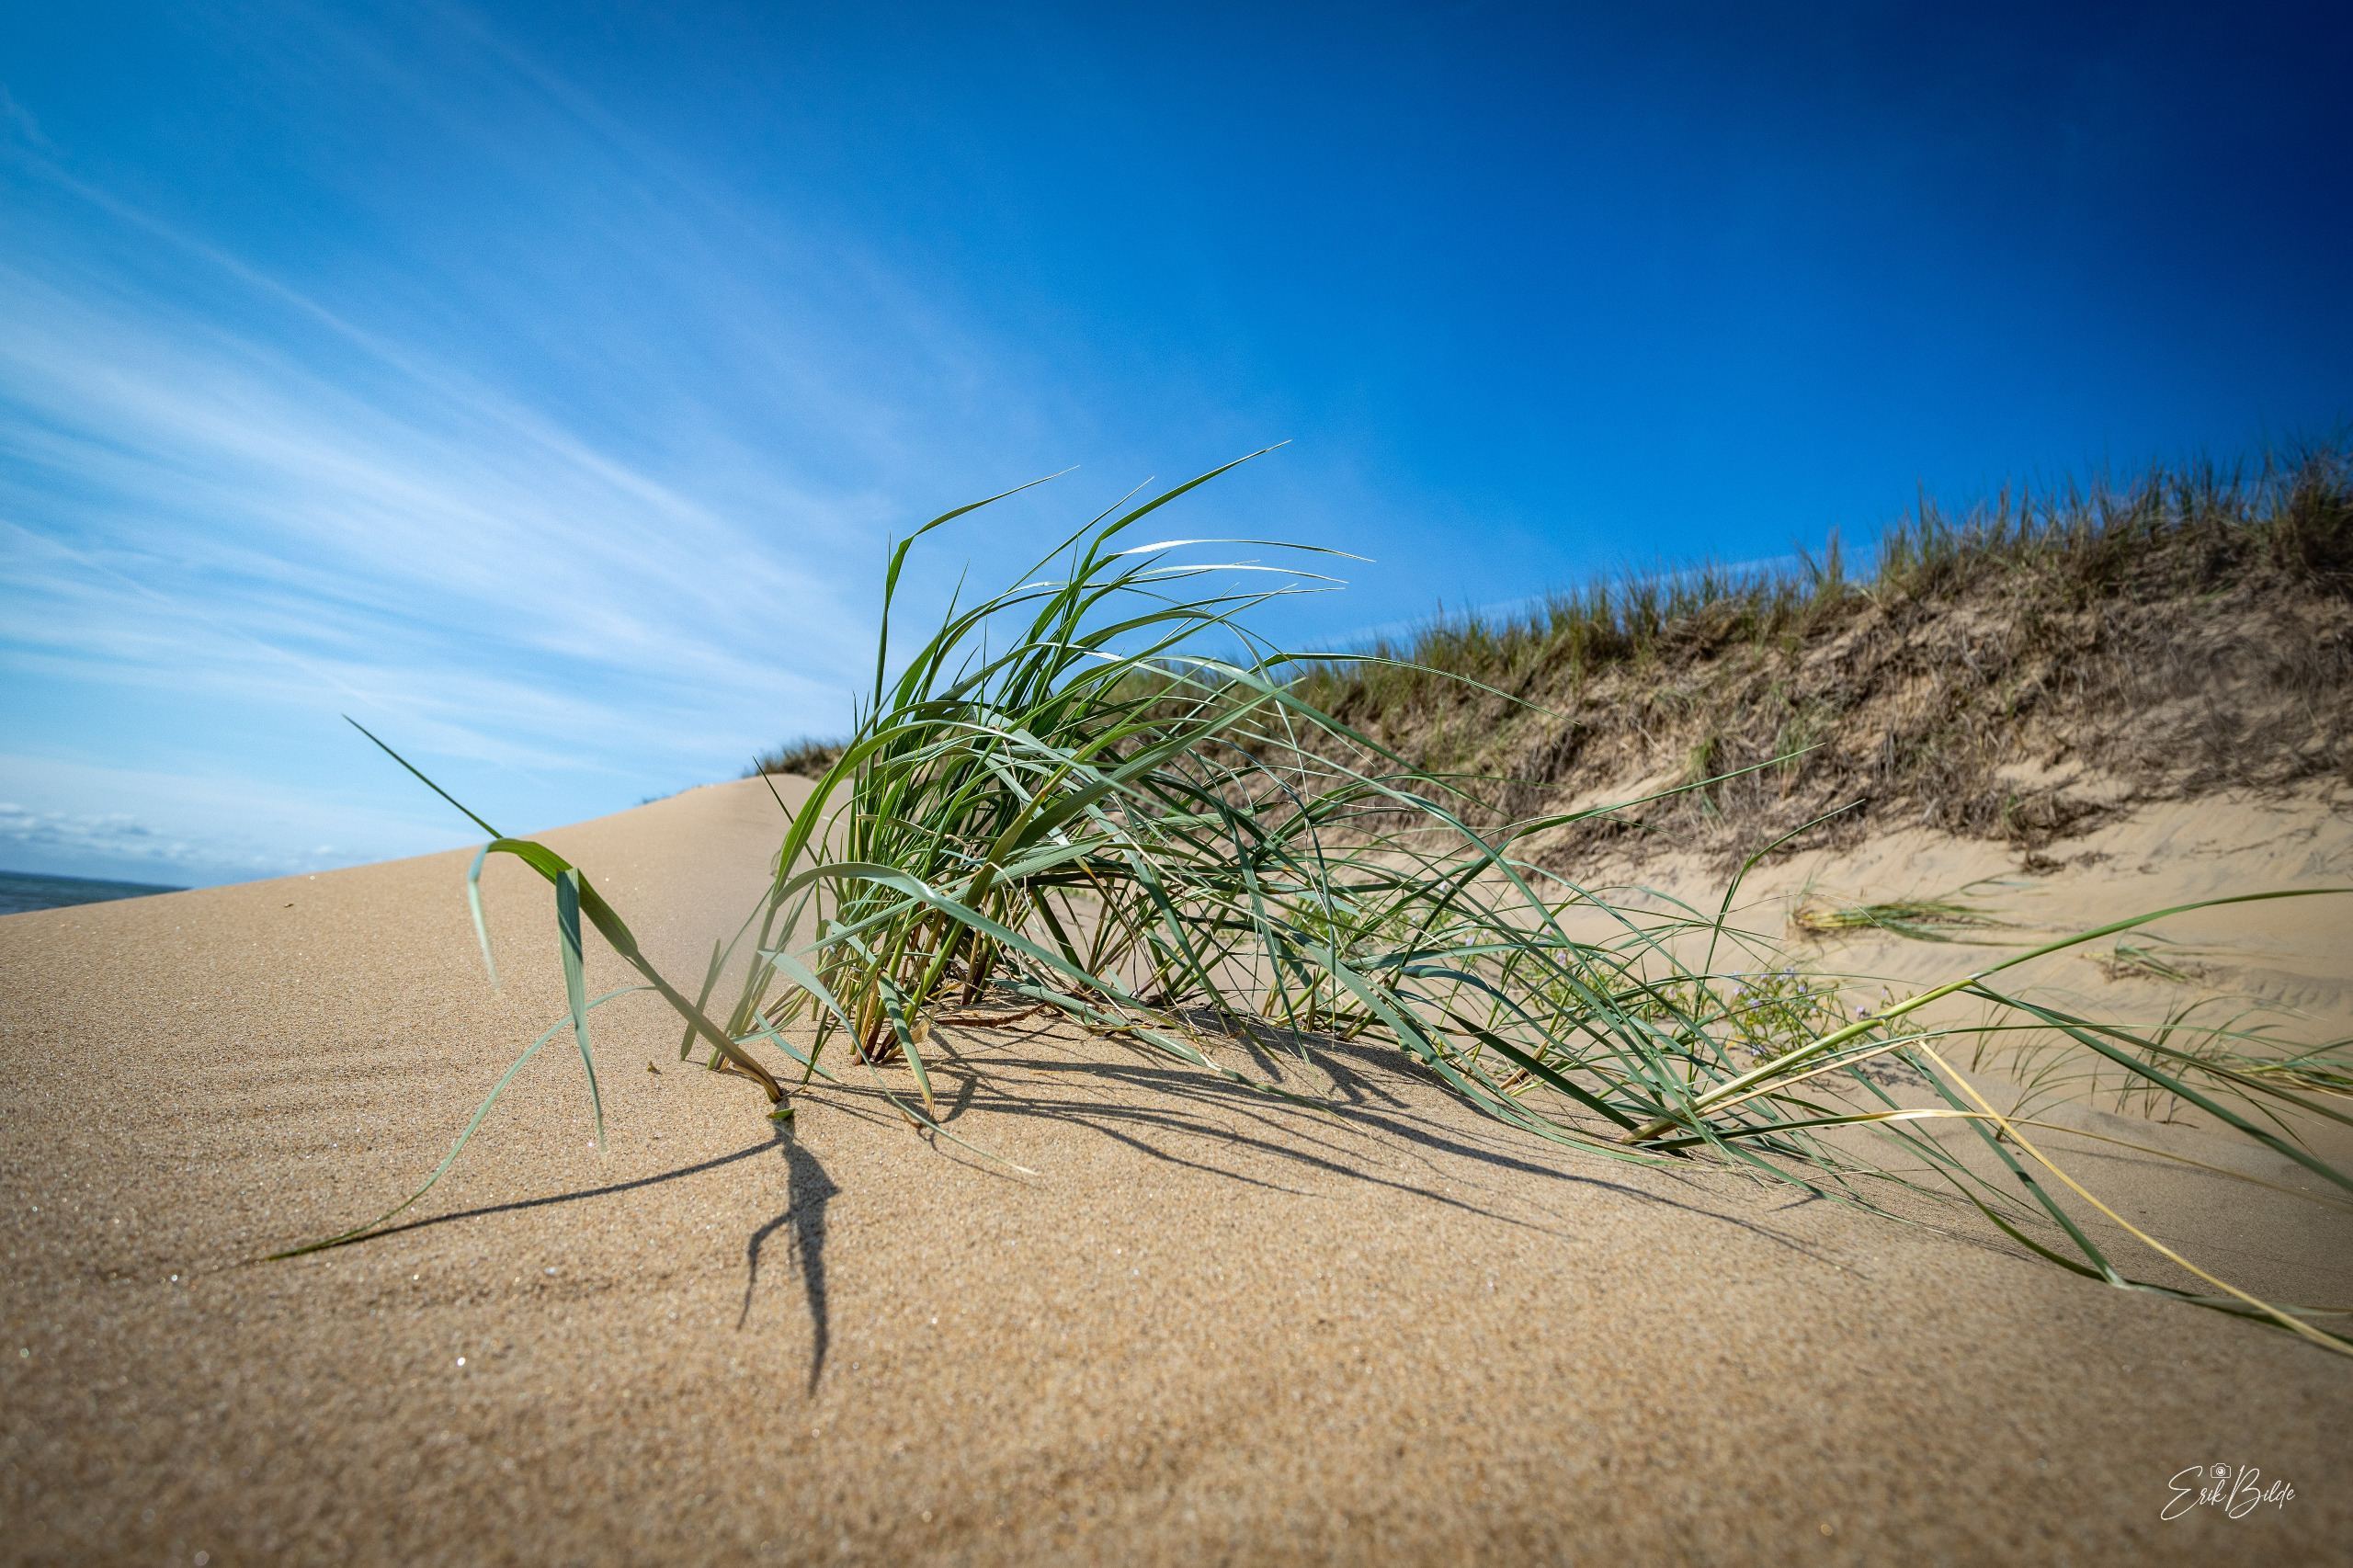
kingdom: Plantae
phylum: Tracheophyta
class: Liliopsida
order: Poales
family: Poaceae
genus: Leymus
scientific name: Leymus arenarius
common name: Marehalm
